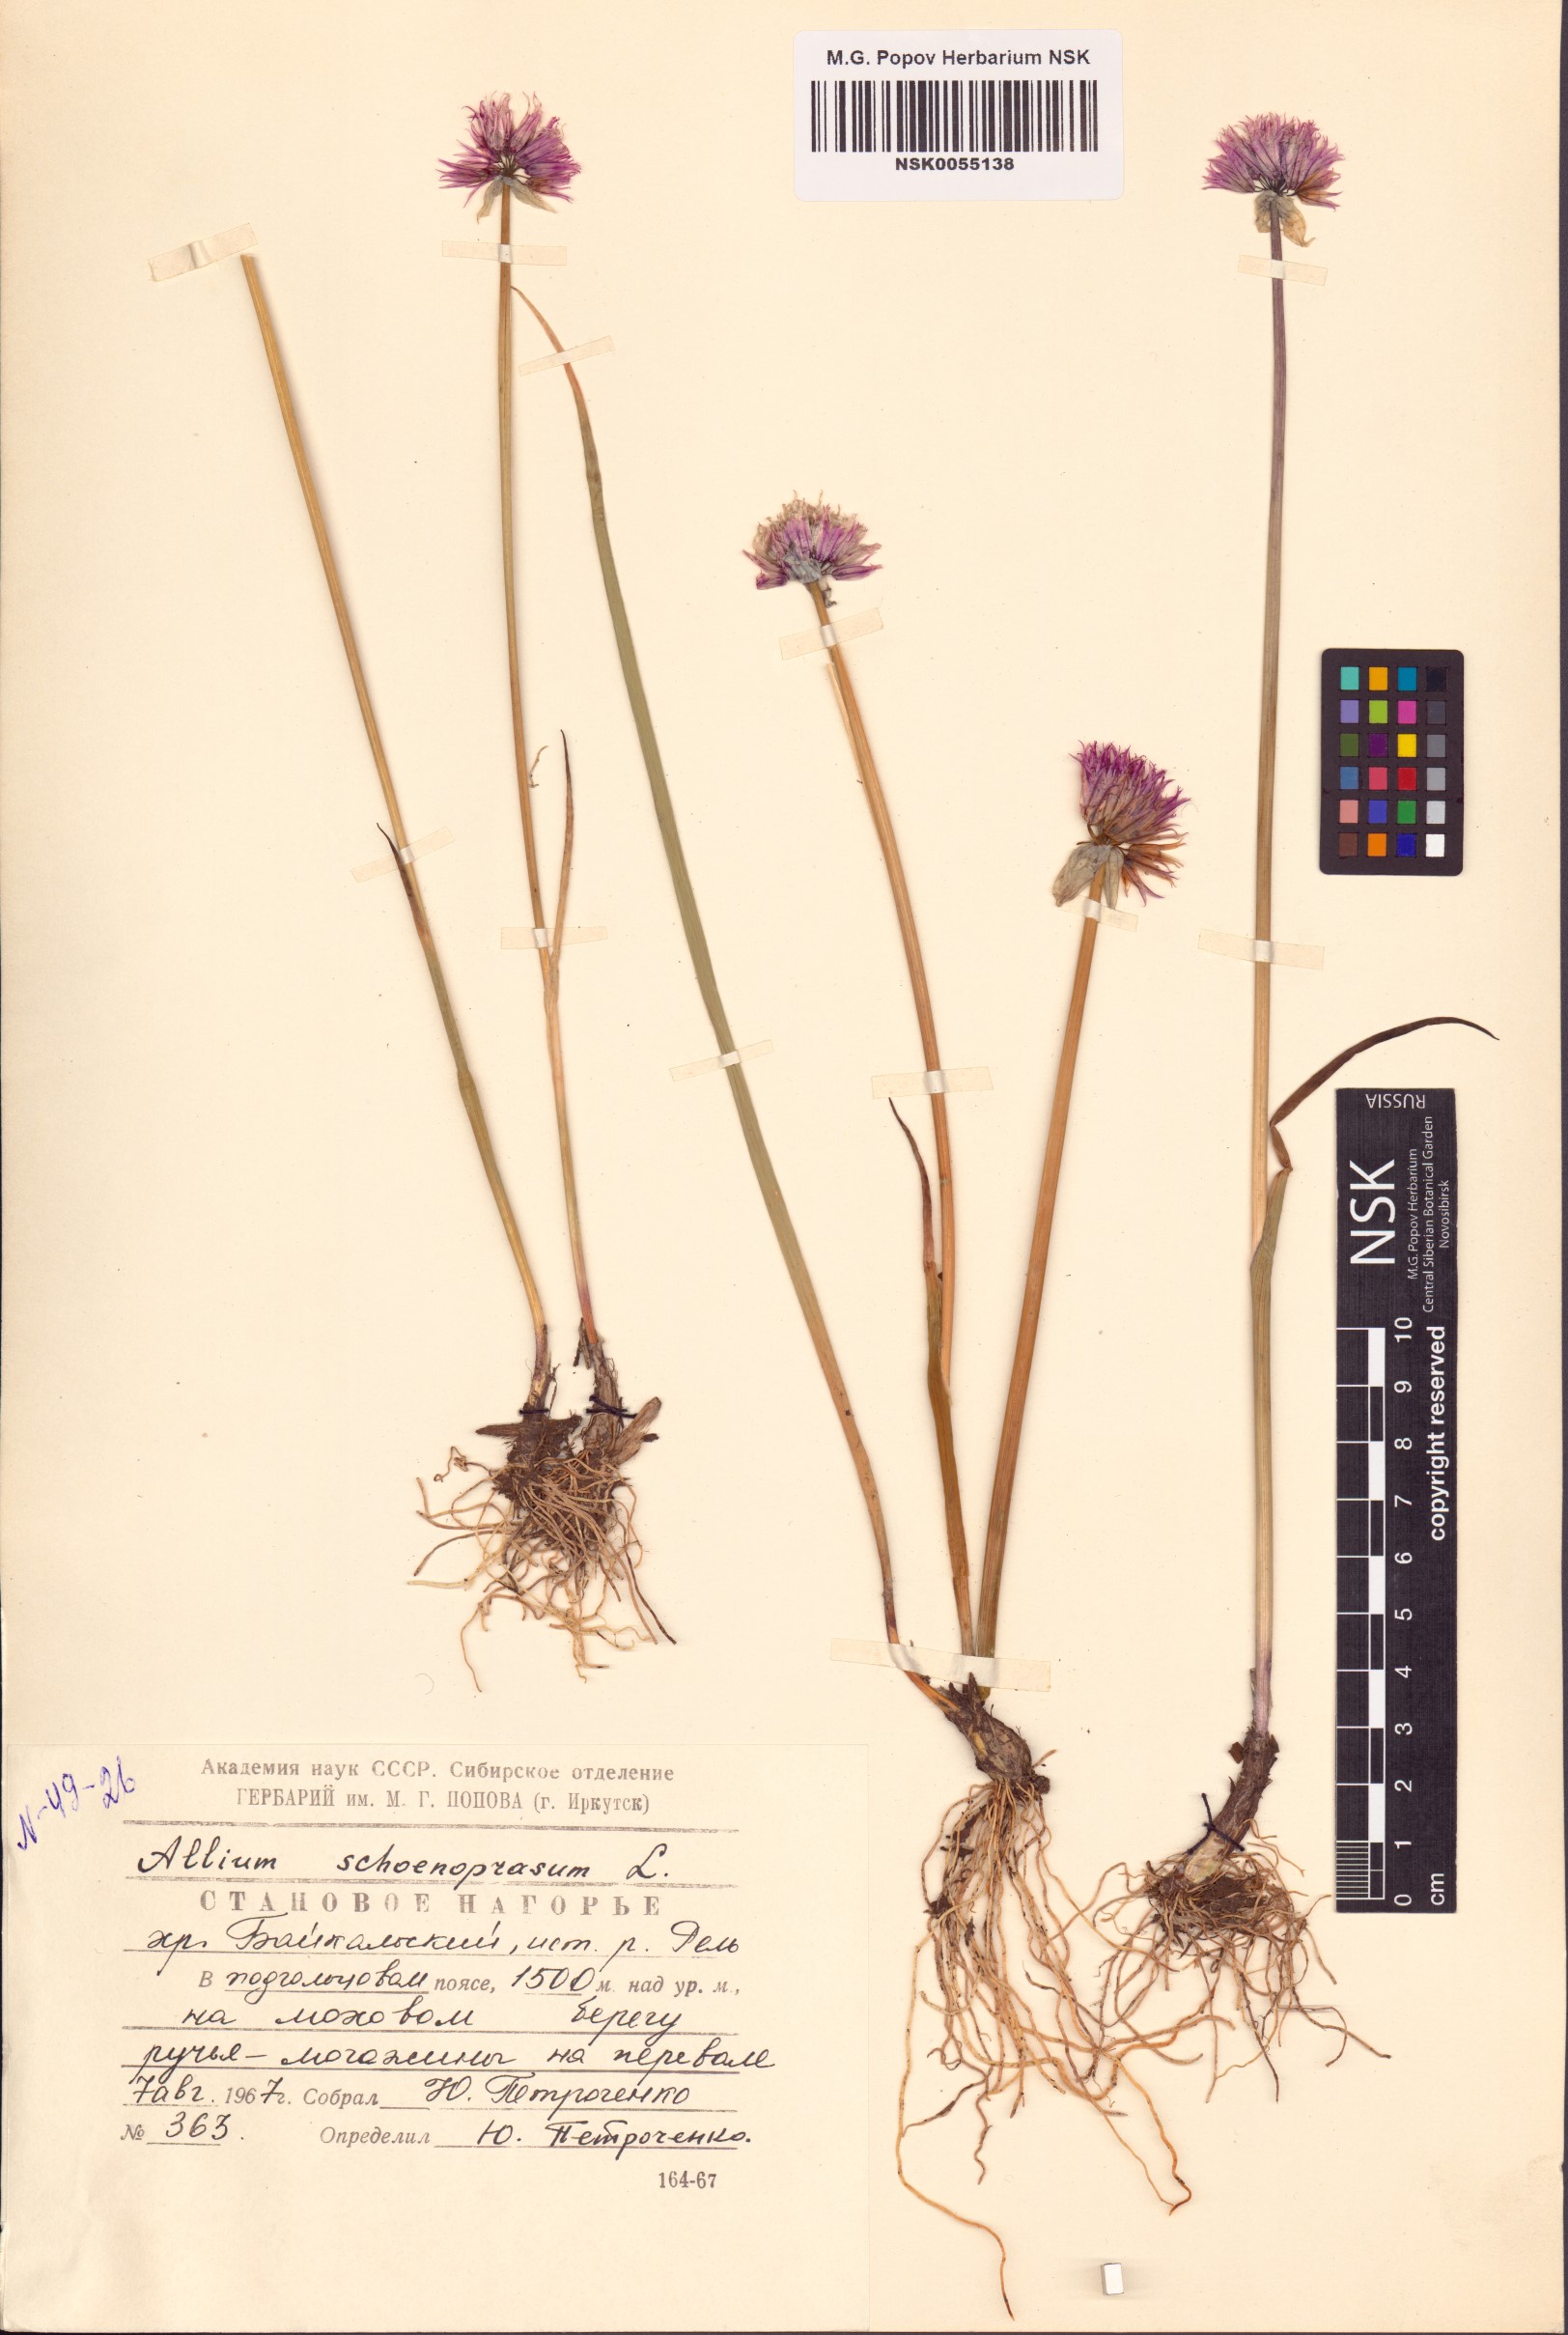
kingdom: Plantae
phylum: Tracheophyta
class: Liliopsida
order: Asparagales
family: Amaryllidaceae
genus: Allium
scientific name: Allium schoenoprasum
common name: Chives
